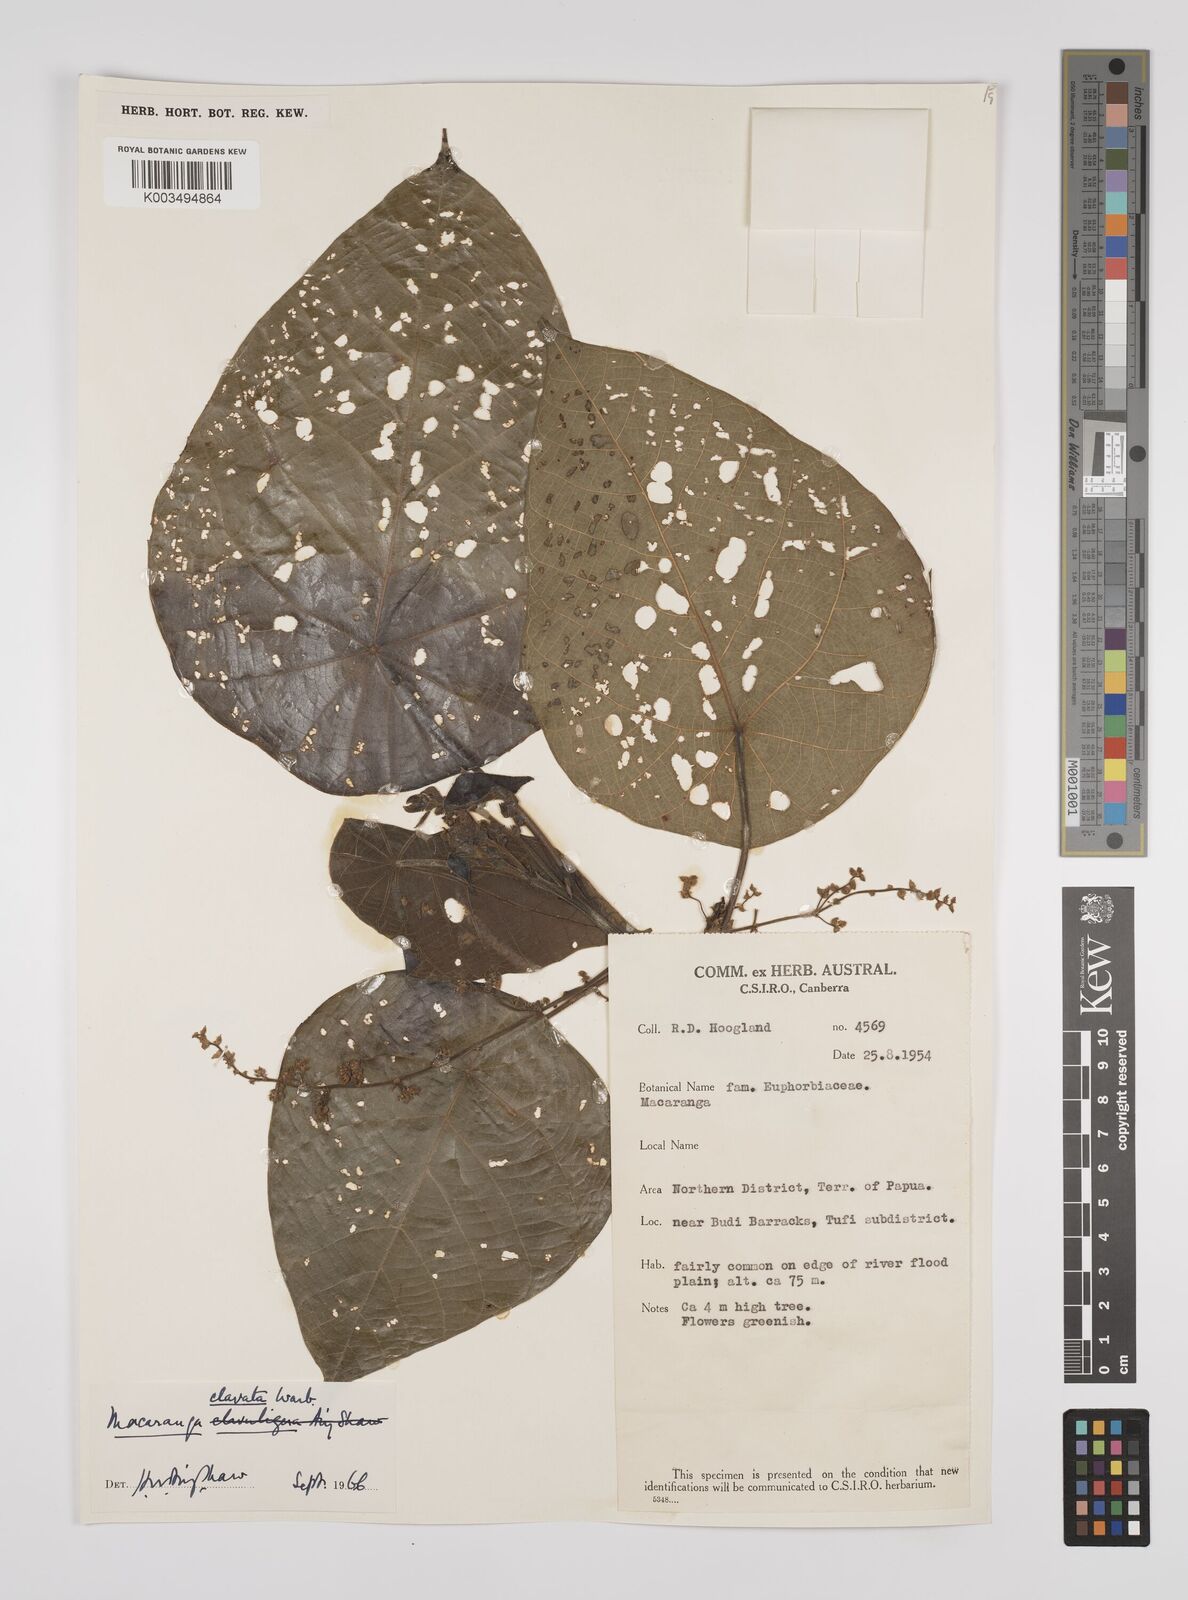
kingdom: Plantae
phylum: Tracheophyta
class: Magnoliopsida
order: Malpighiales
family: Euphorbiaceae
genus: Macaranga
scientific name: Macaranga clavata
